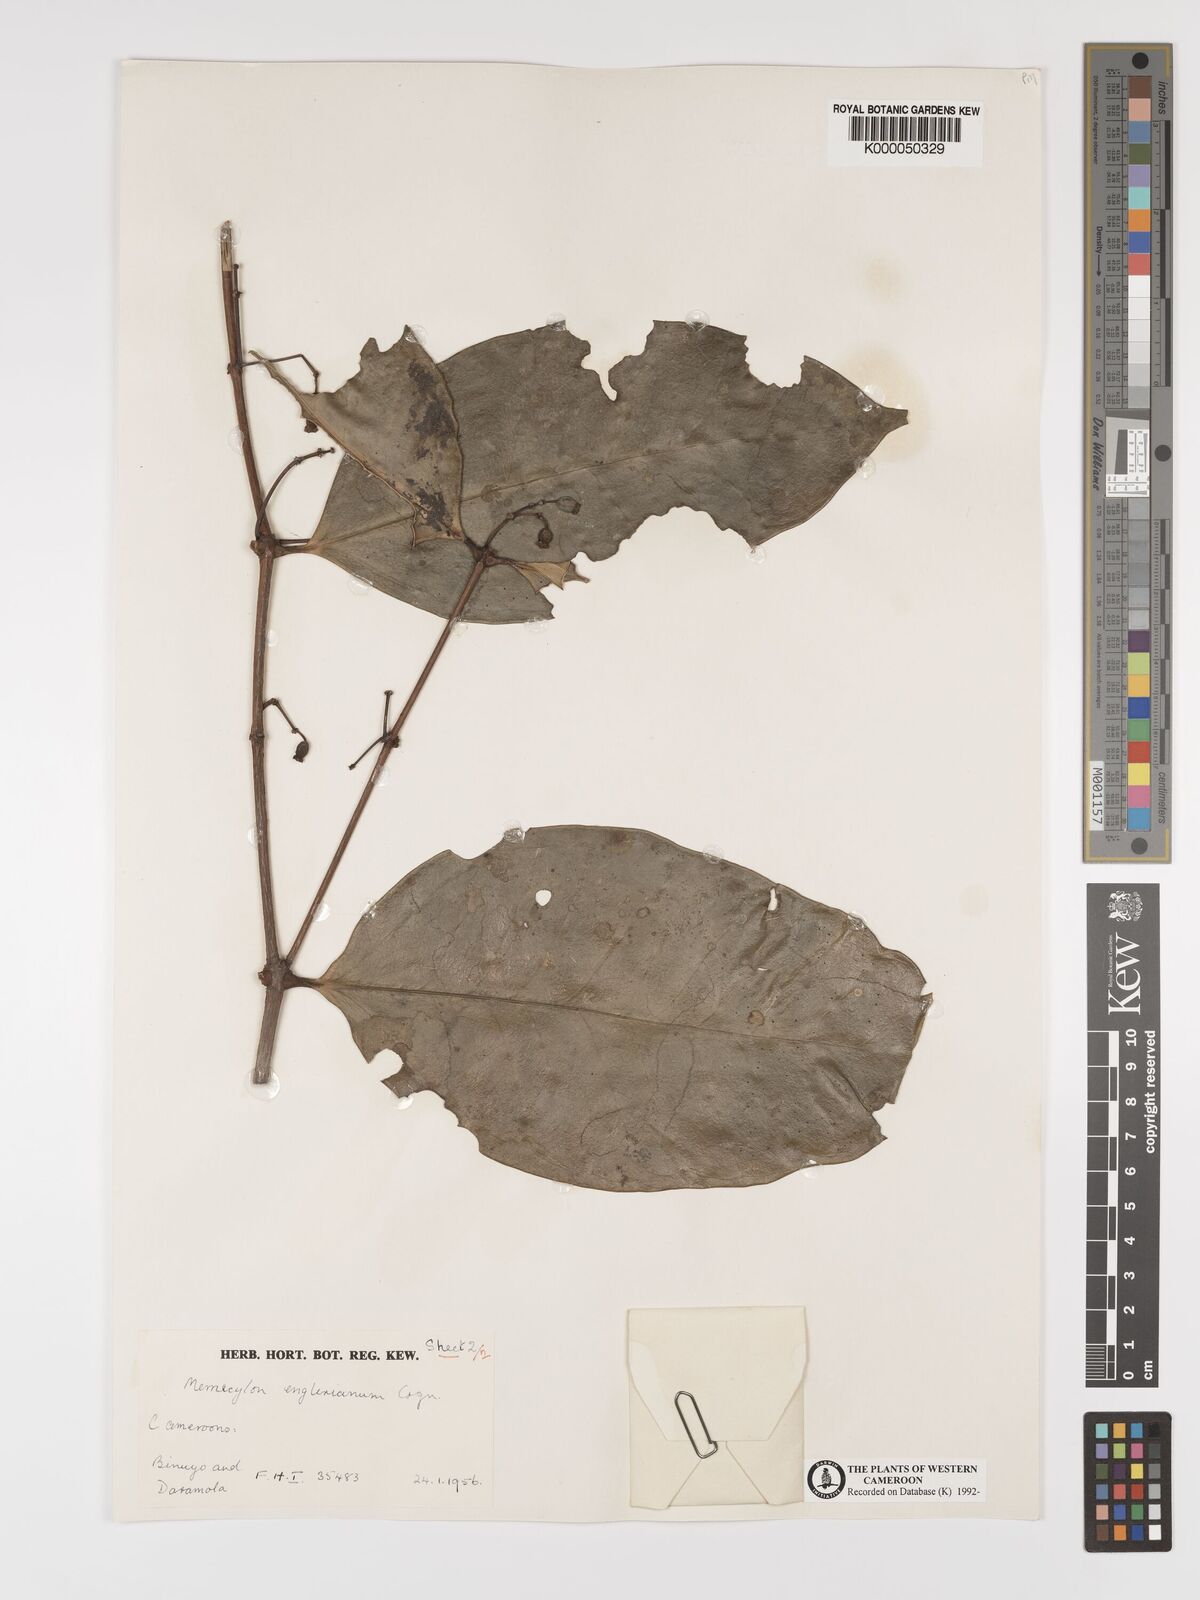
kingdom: Plantae
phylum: Tracheophyta
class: Magnoliopsida
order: Myrtales
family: Melastomataceae
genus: Memecylon
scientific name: Memecylon englerianum
